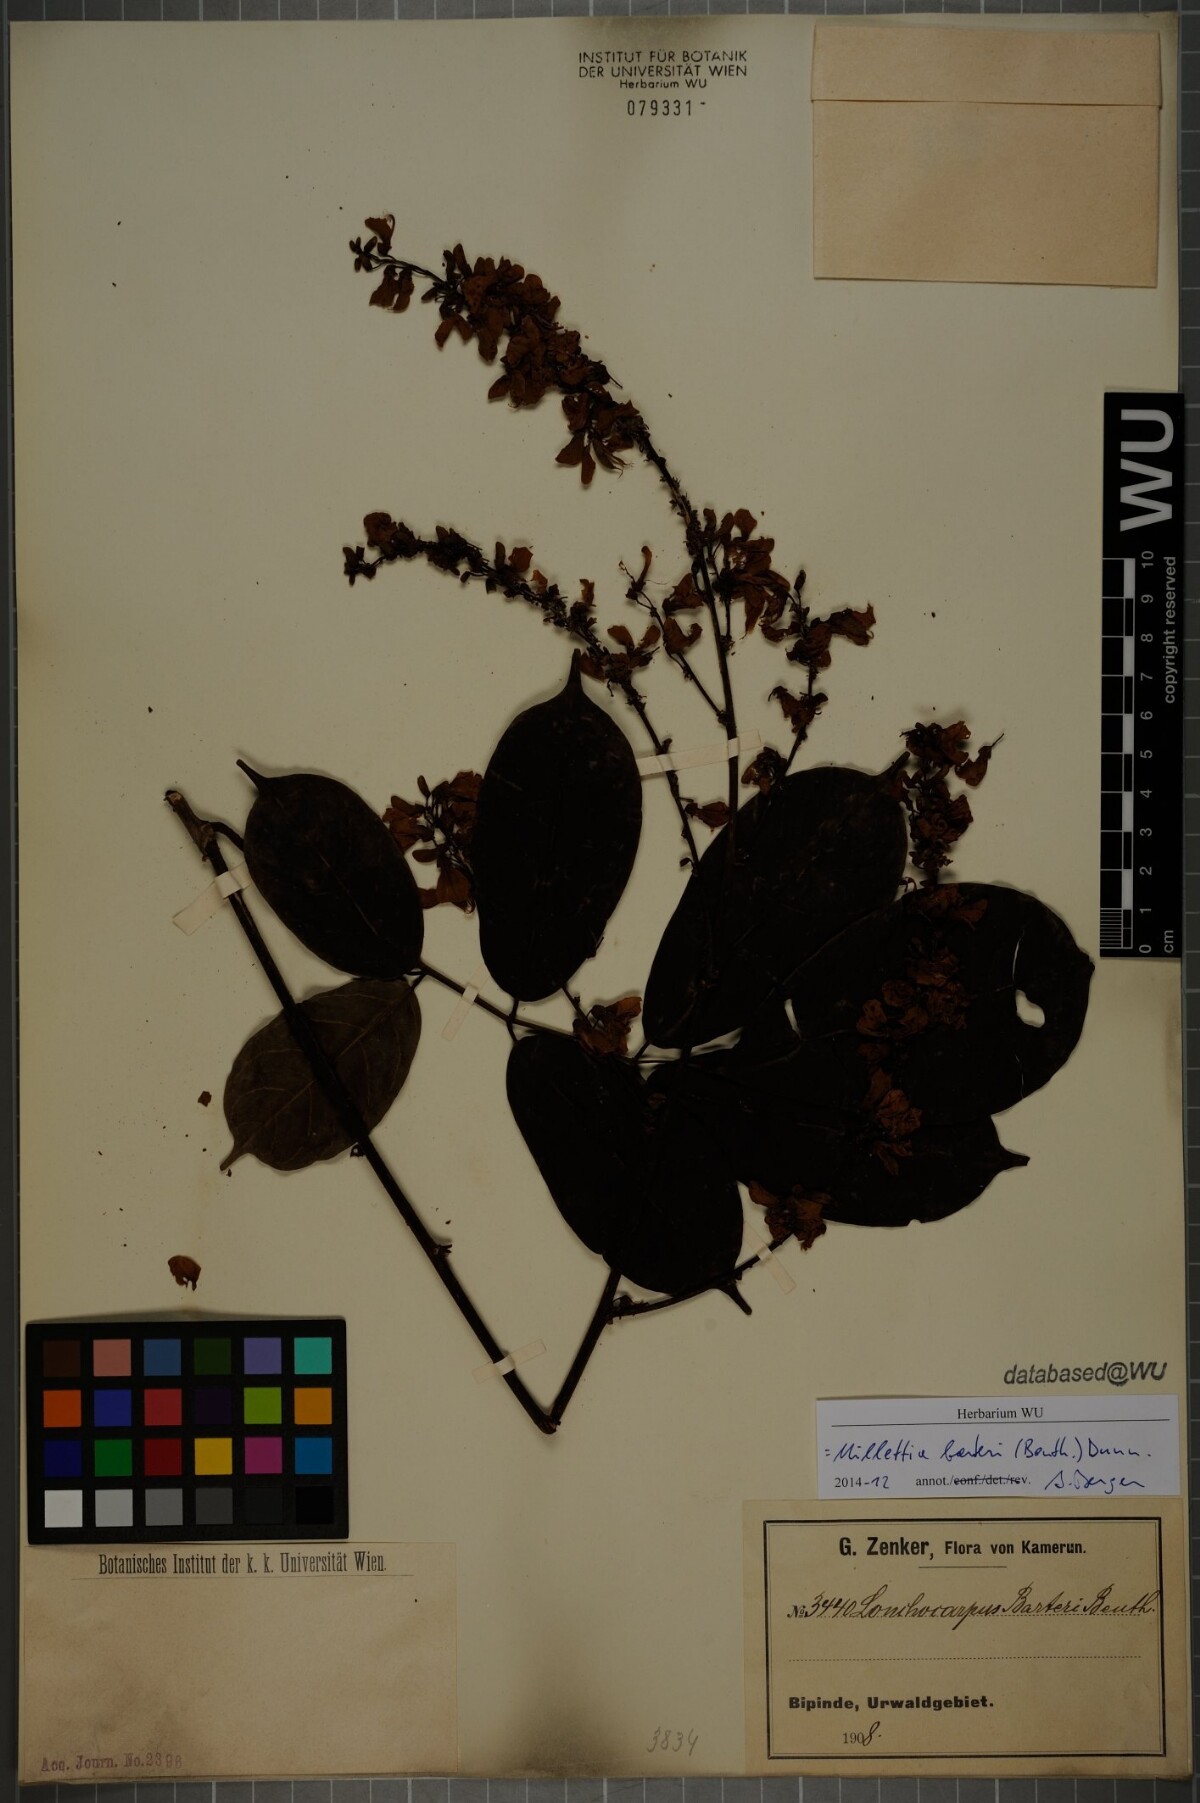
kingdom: Plantae
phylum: Tracheophyta
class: Magnoliopsida
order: Fabales
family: Fabaceae
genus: Millettia
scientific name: Millettia barteri
